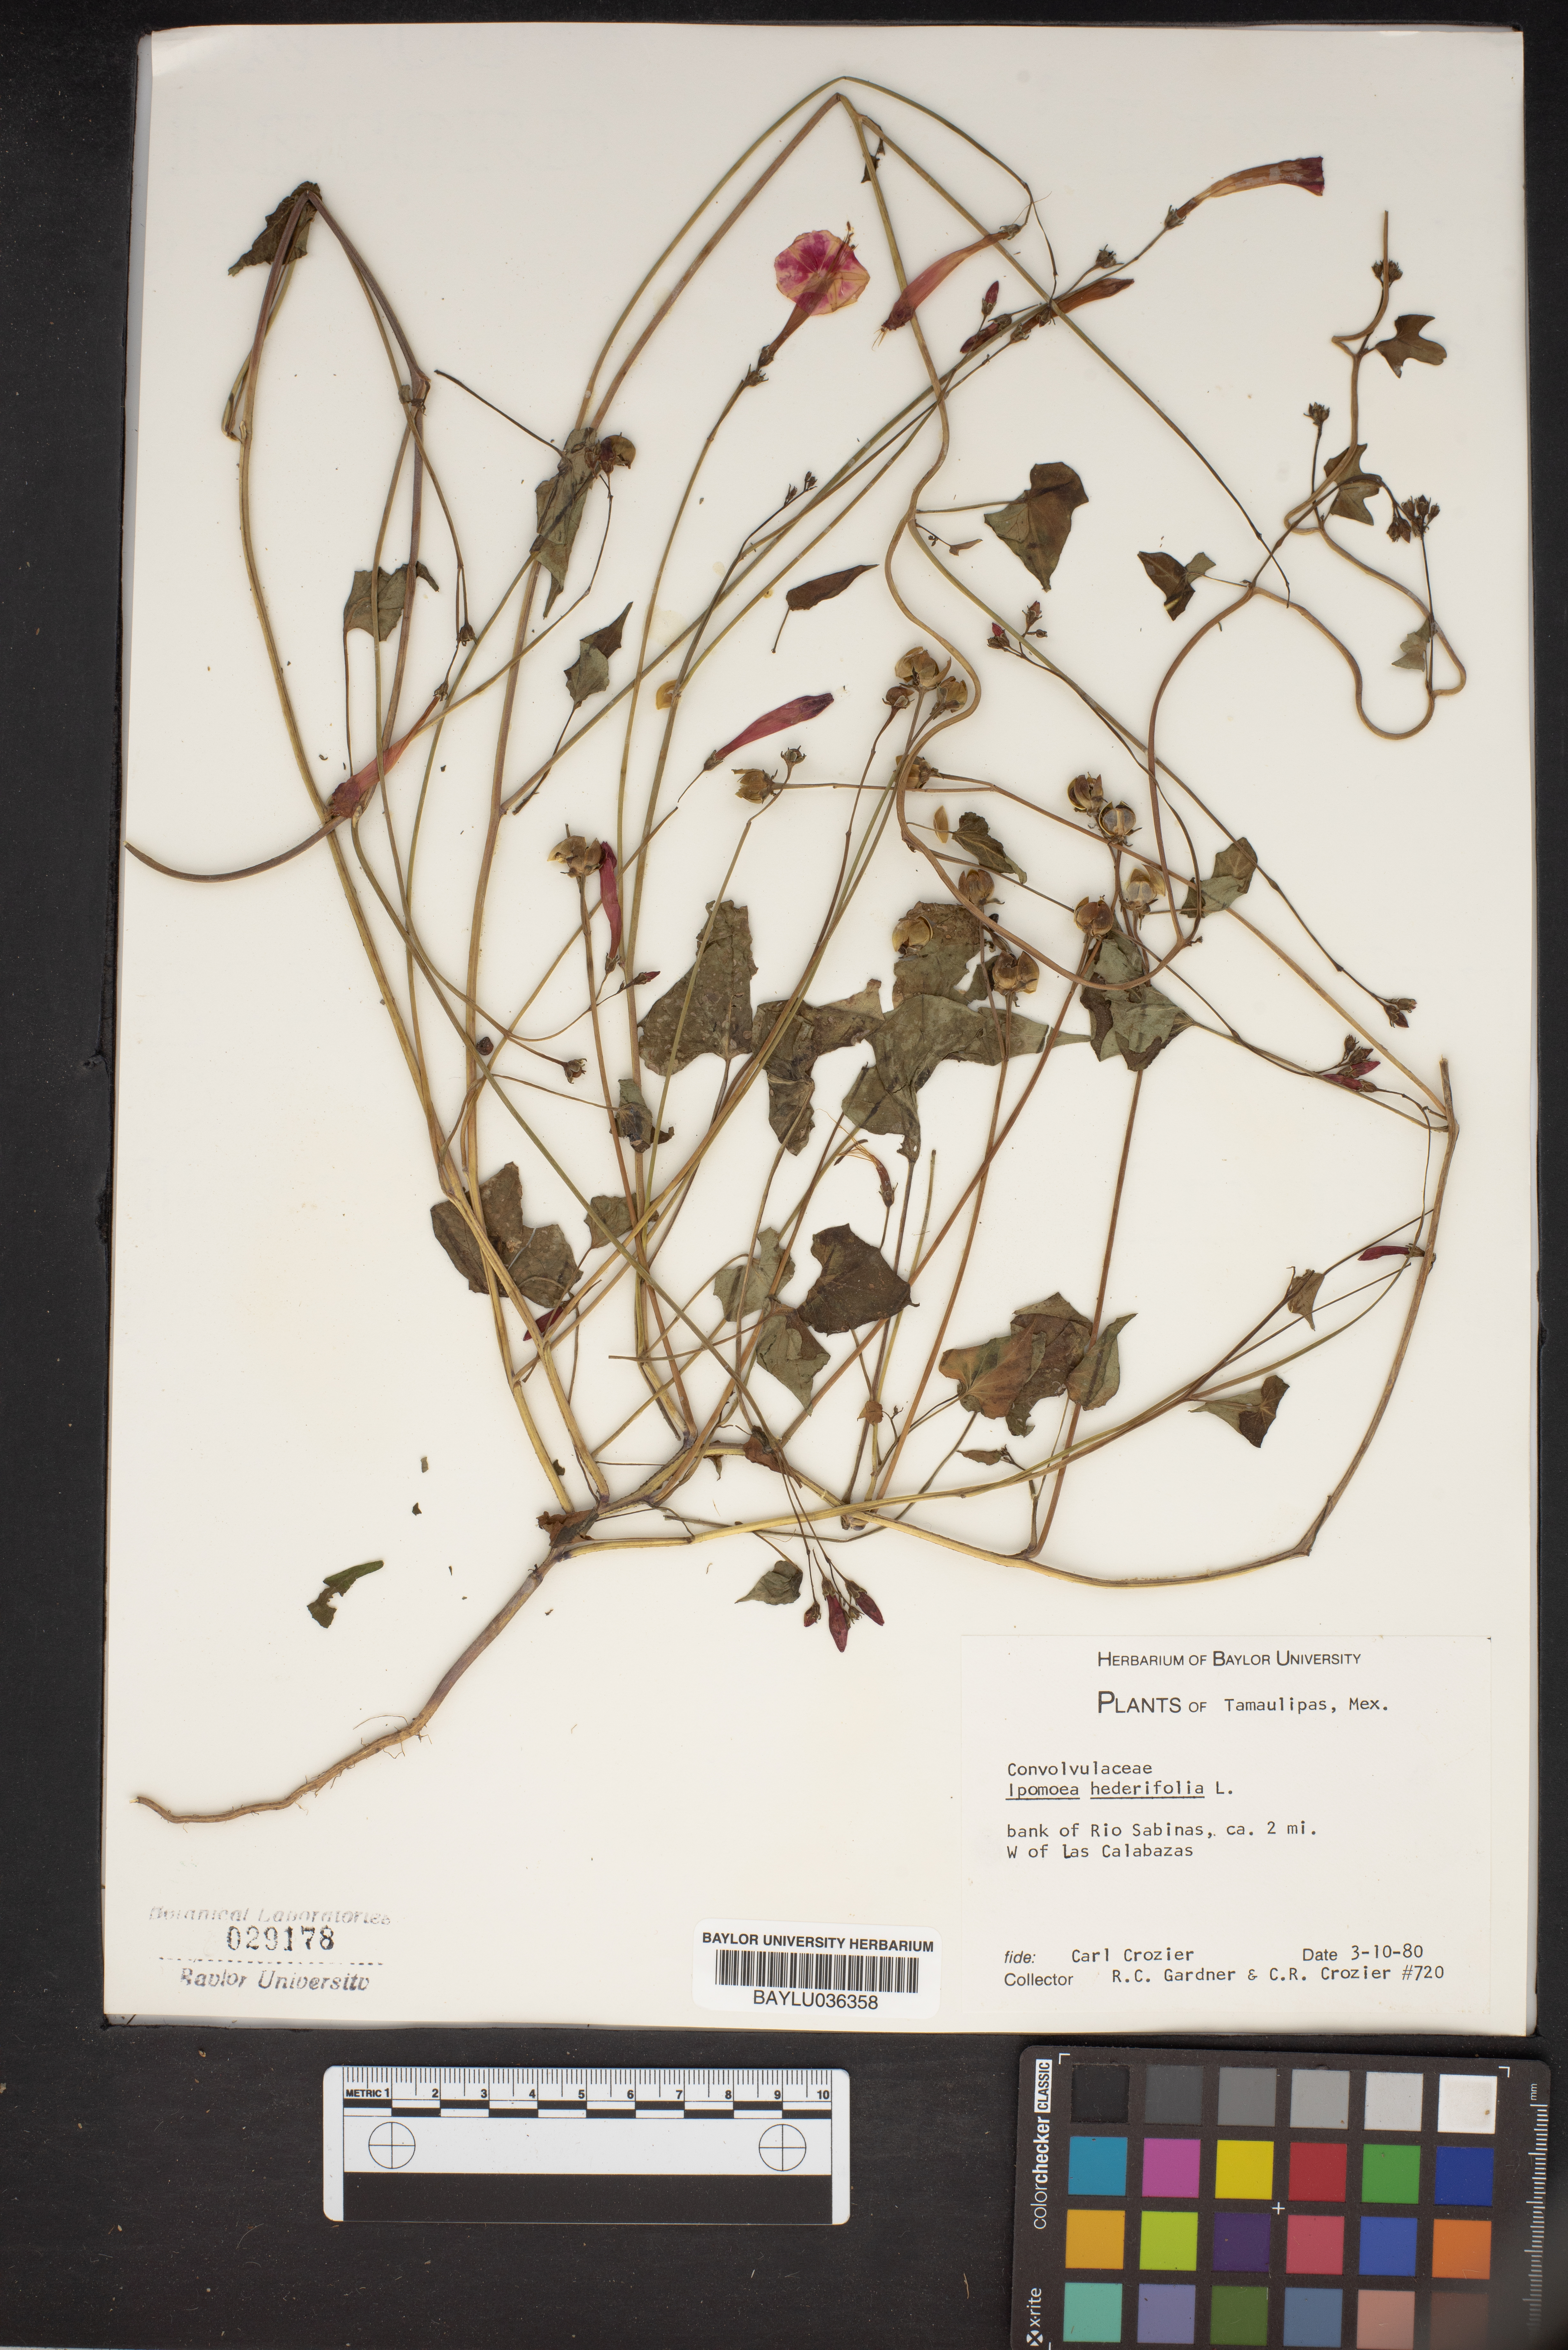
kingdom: Plantae
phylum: Tracheophyta
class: Magnoliopsida
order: Solanales
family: Convolvulaceae
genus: Ipomoea
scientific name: Ipomoea hederifolia
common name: Ivy-leaf morning-glory
